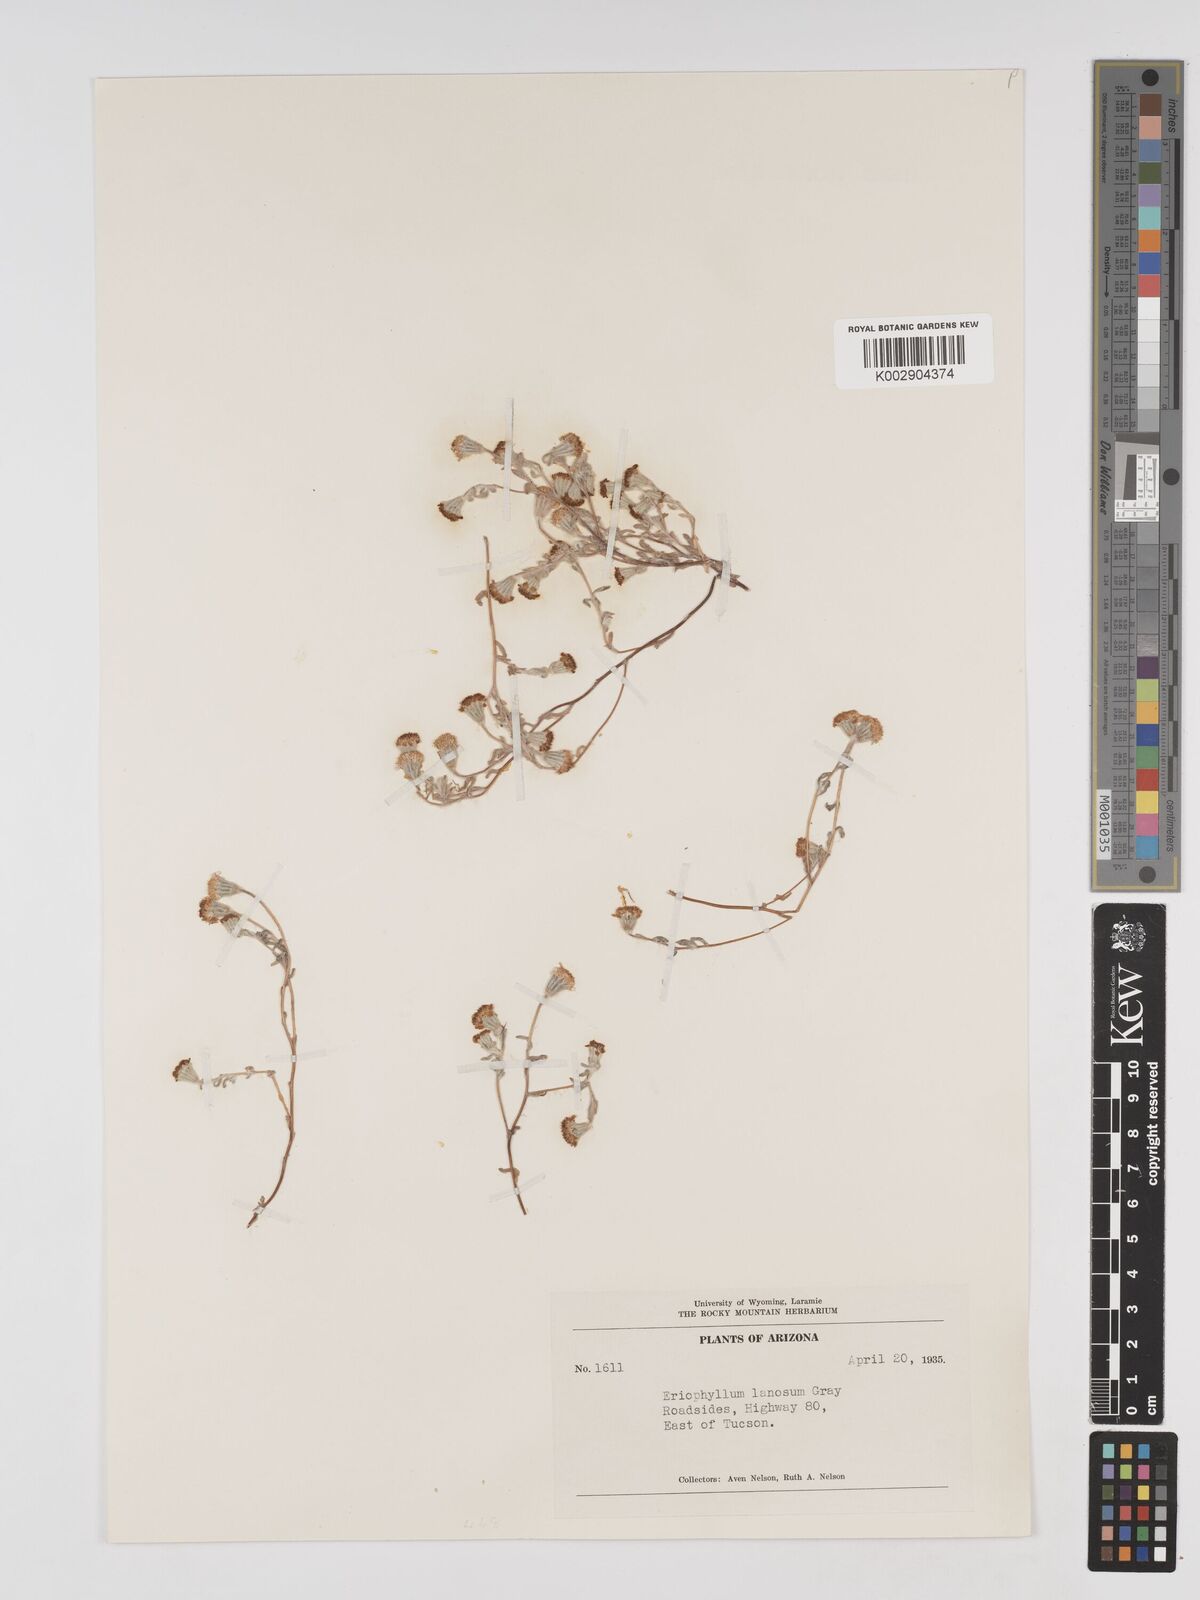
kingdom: Plantae
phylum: Tracheophyta
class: Magnoliopsida
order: Asterales
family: Asteraceae
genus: Eriophyllum
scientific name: Eriophyllum lanosum
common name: White easter-bonnets
